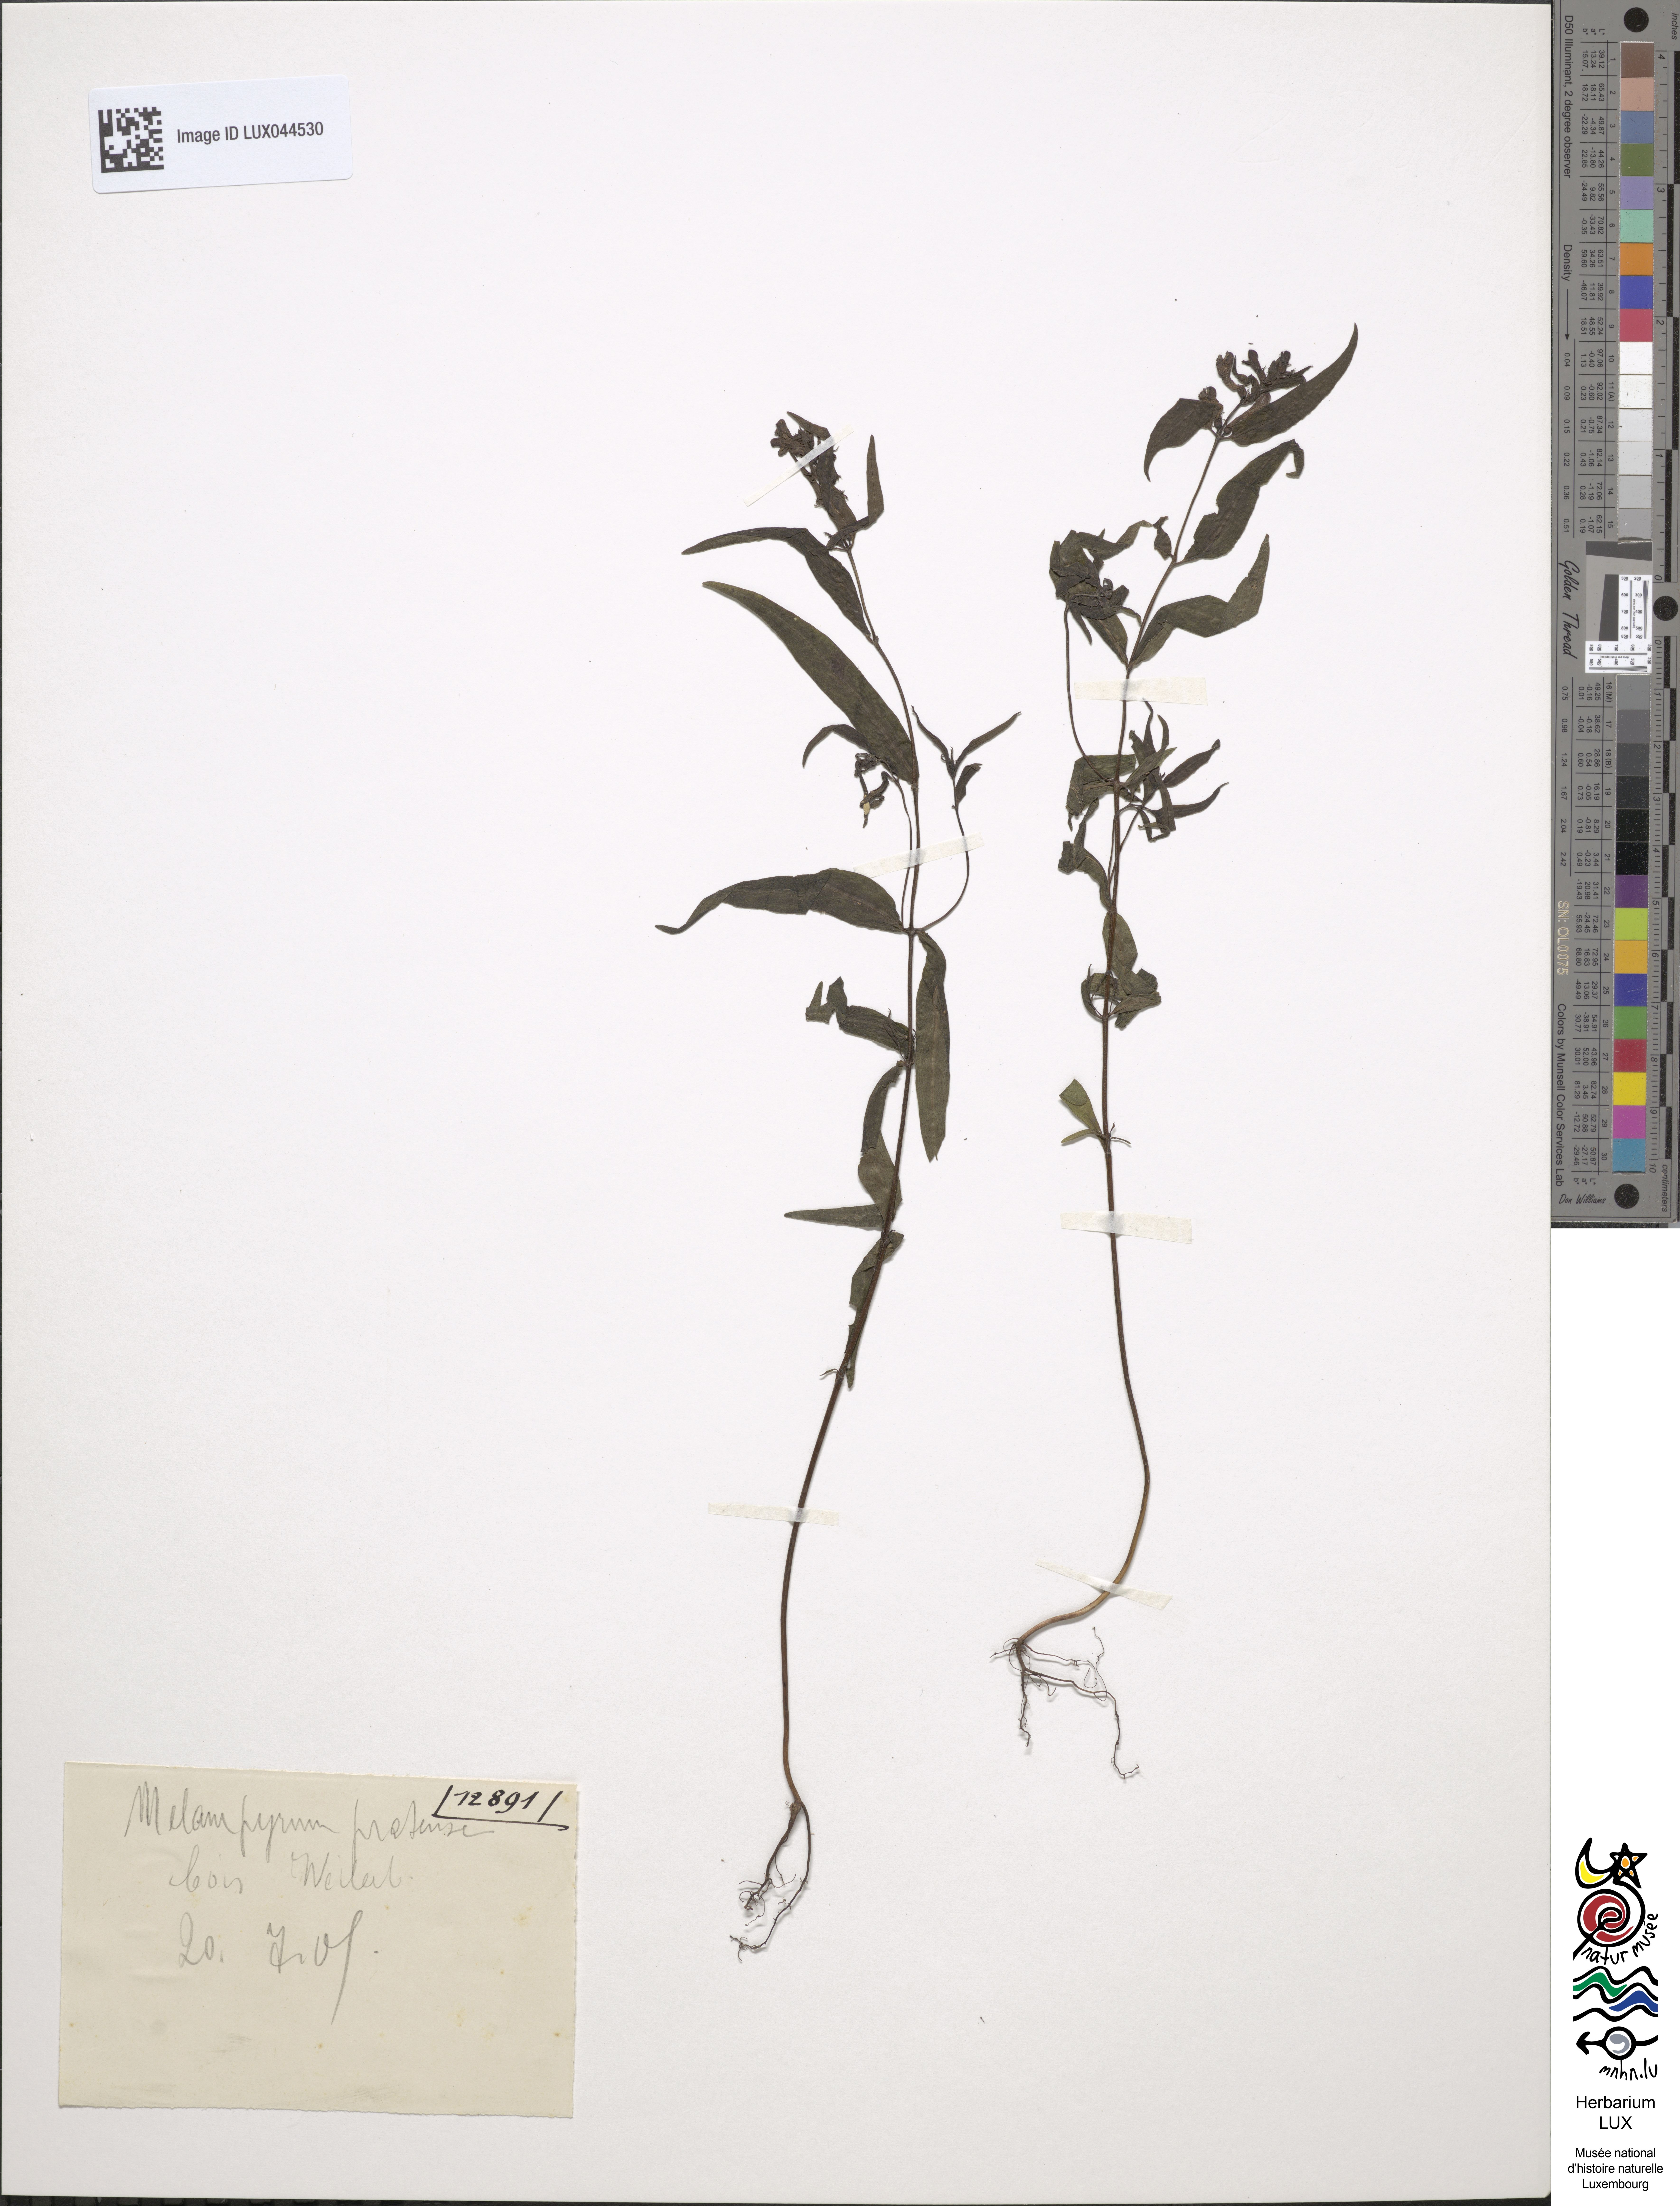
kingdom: Plantae
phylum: Tracheophyta
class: Magnoliopsida
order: Lamiales
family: Orobanchaceae
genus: Melampyrum
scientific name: Melampyrum pratense
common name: Common cow-wheat
